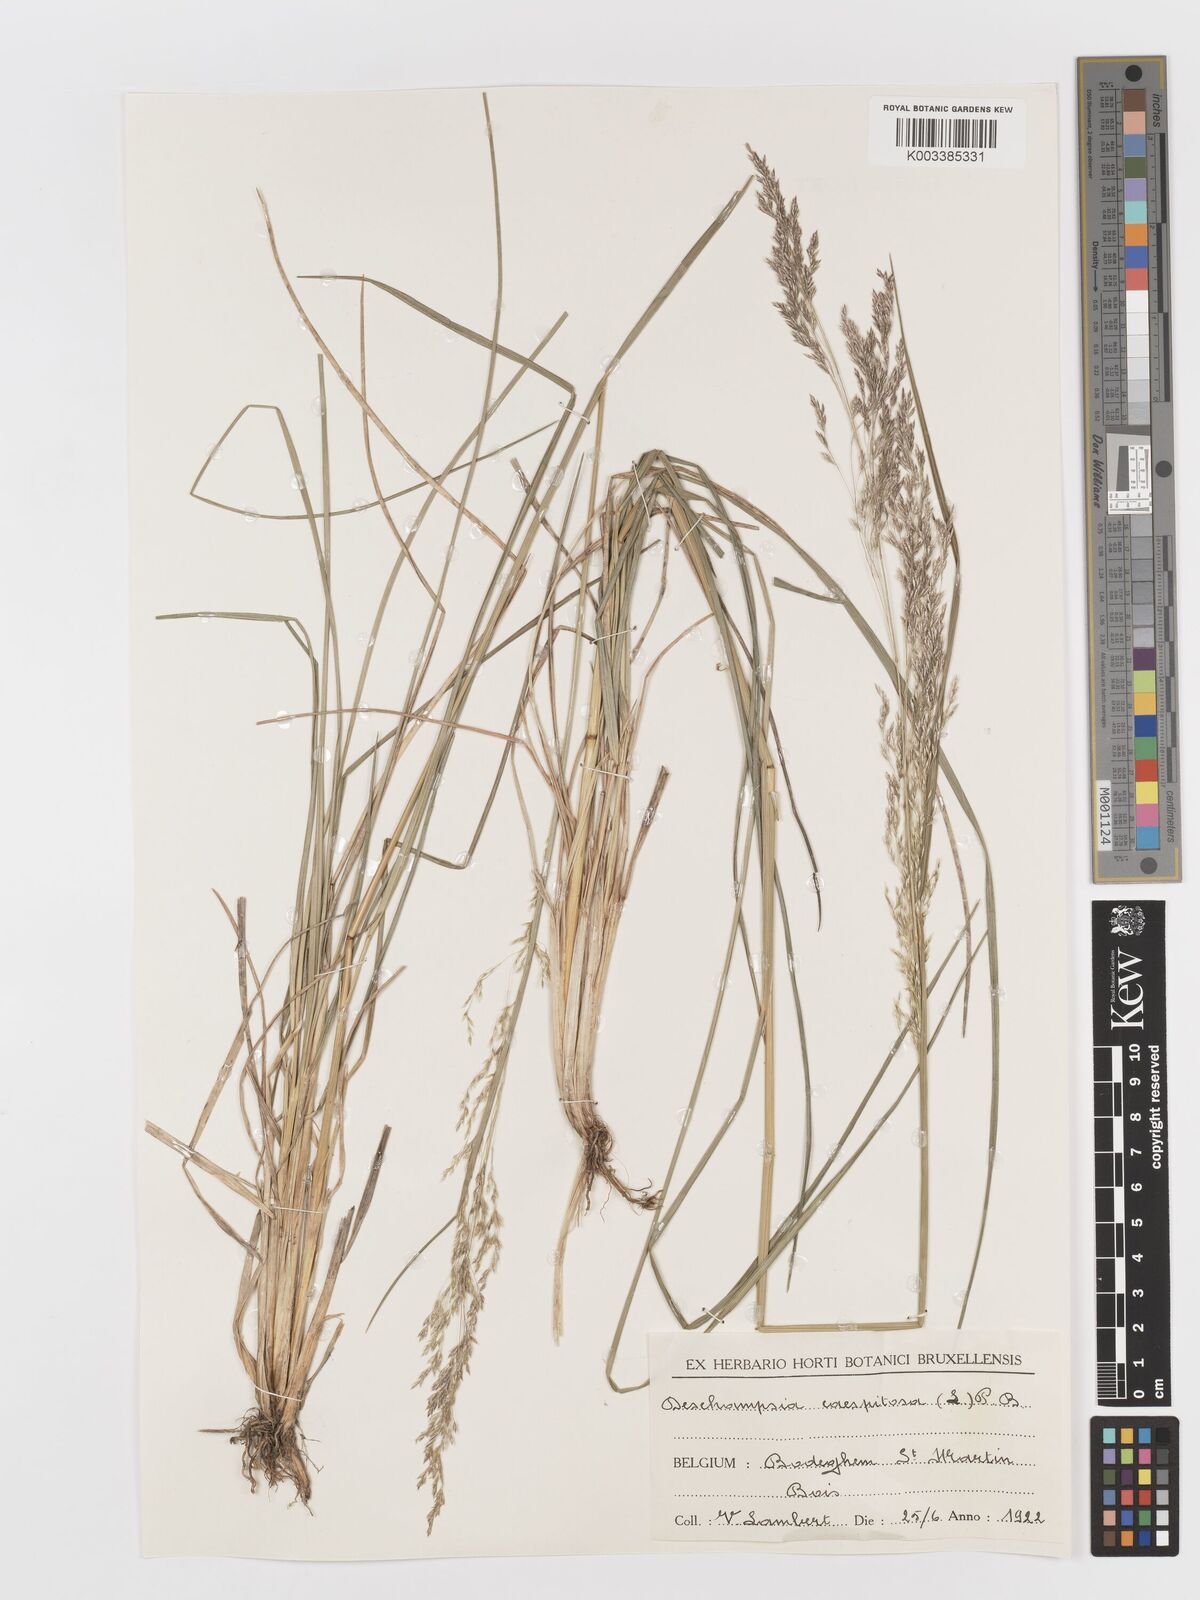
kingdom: Plantae
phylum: Tracheophyta
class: Liliopsida
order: Poales
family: Poaceae
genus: Deschampsia
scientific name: Deschampsia cespitosa
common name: Tufted hair-grass
